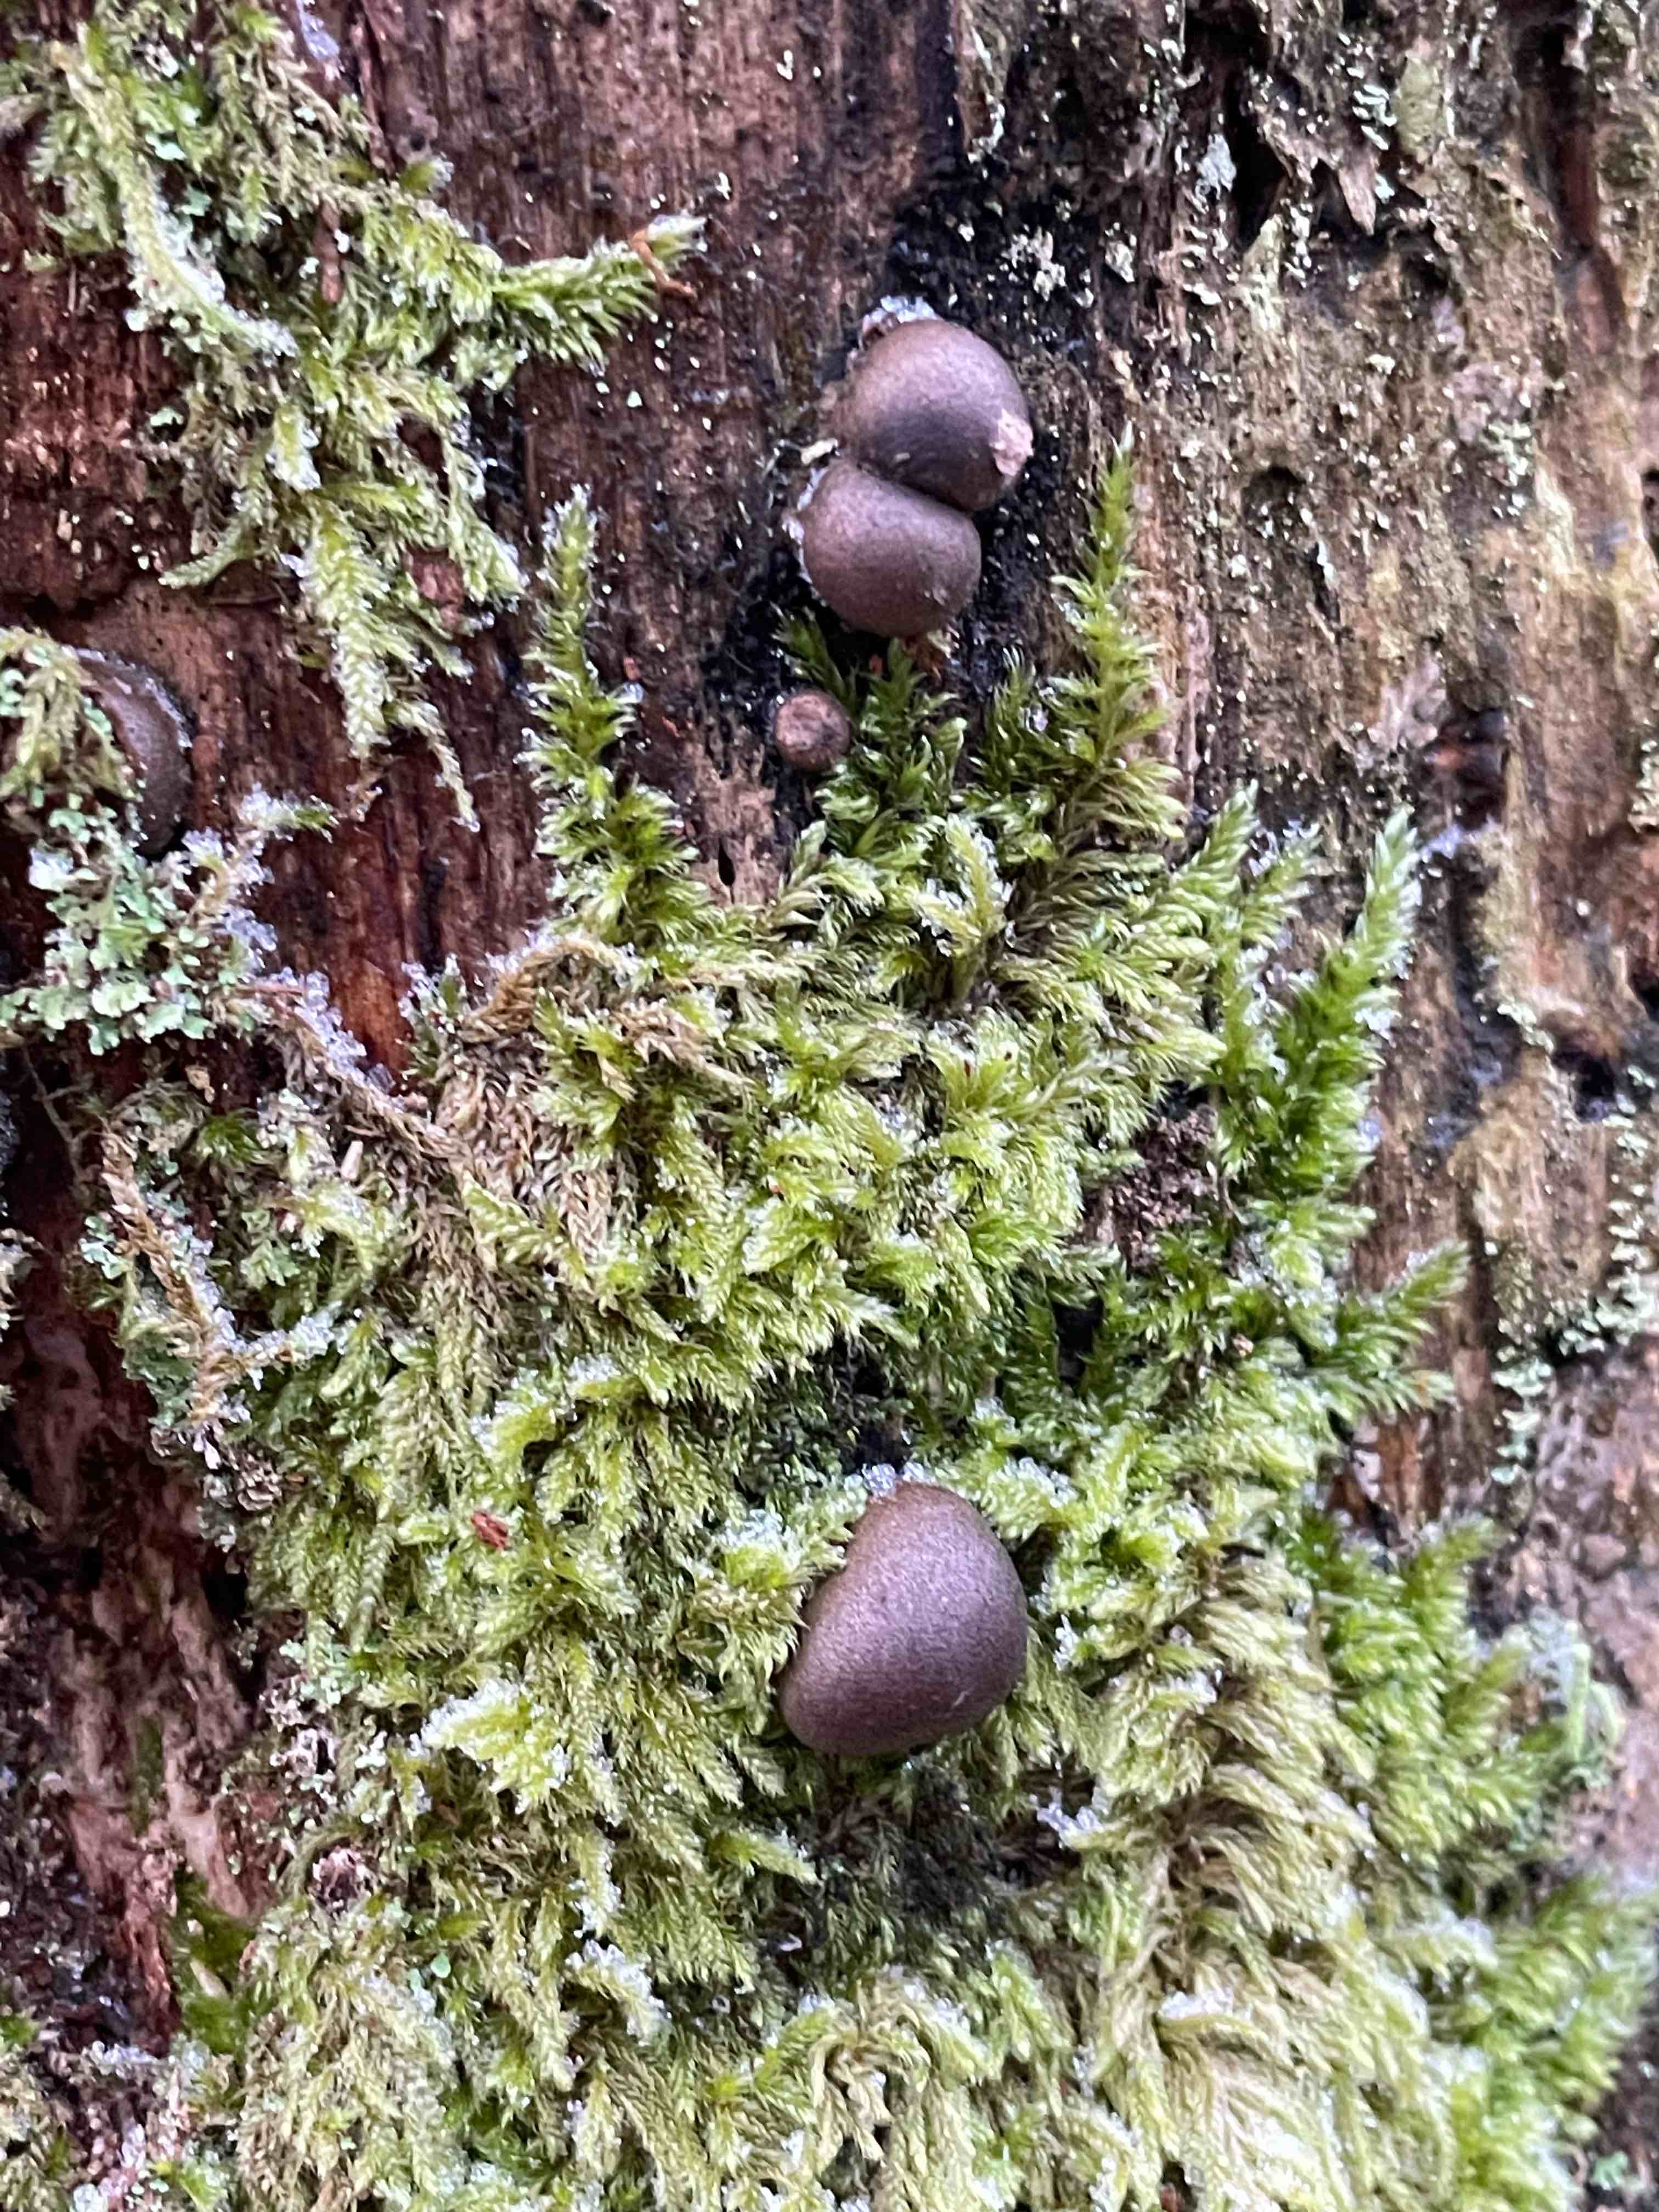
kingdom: Protozoa
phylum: Mycetozoa
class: Myxomycetes
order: Cribrariales
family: Tubiferaceae
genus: Lycogala
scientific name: Lycogala epidendrum
